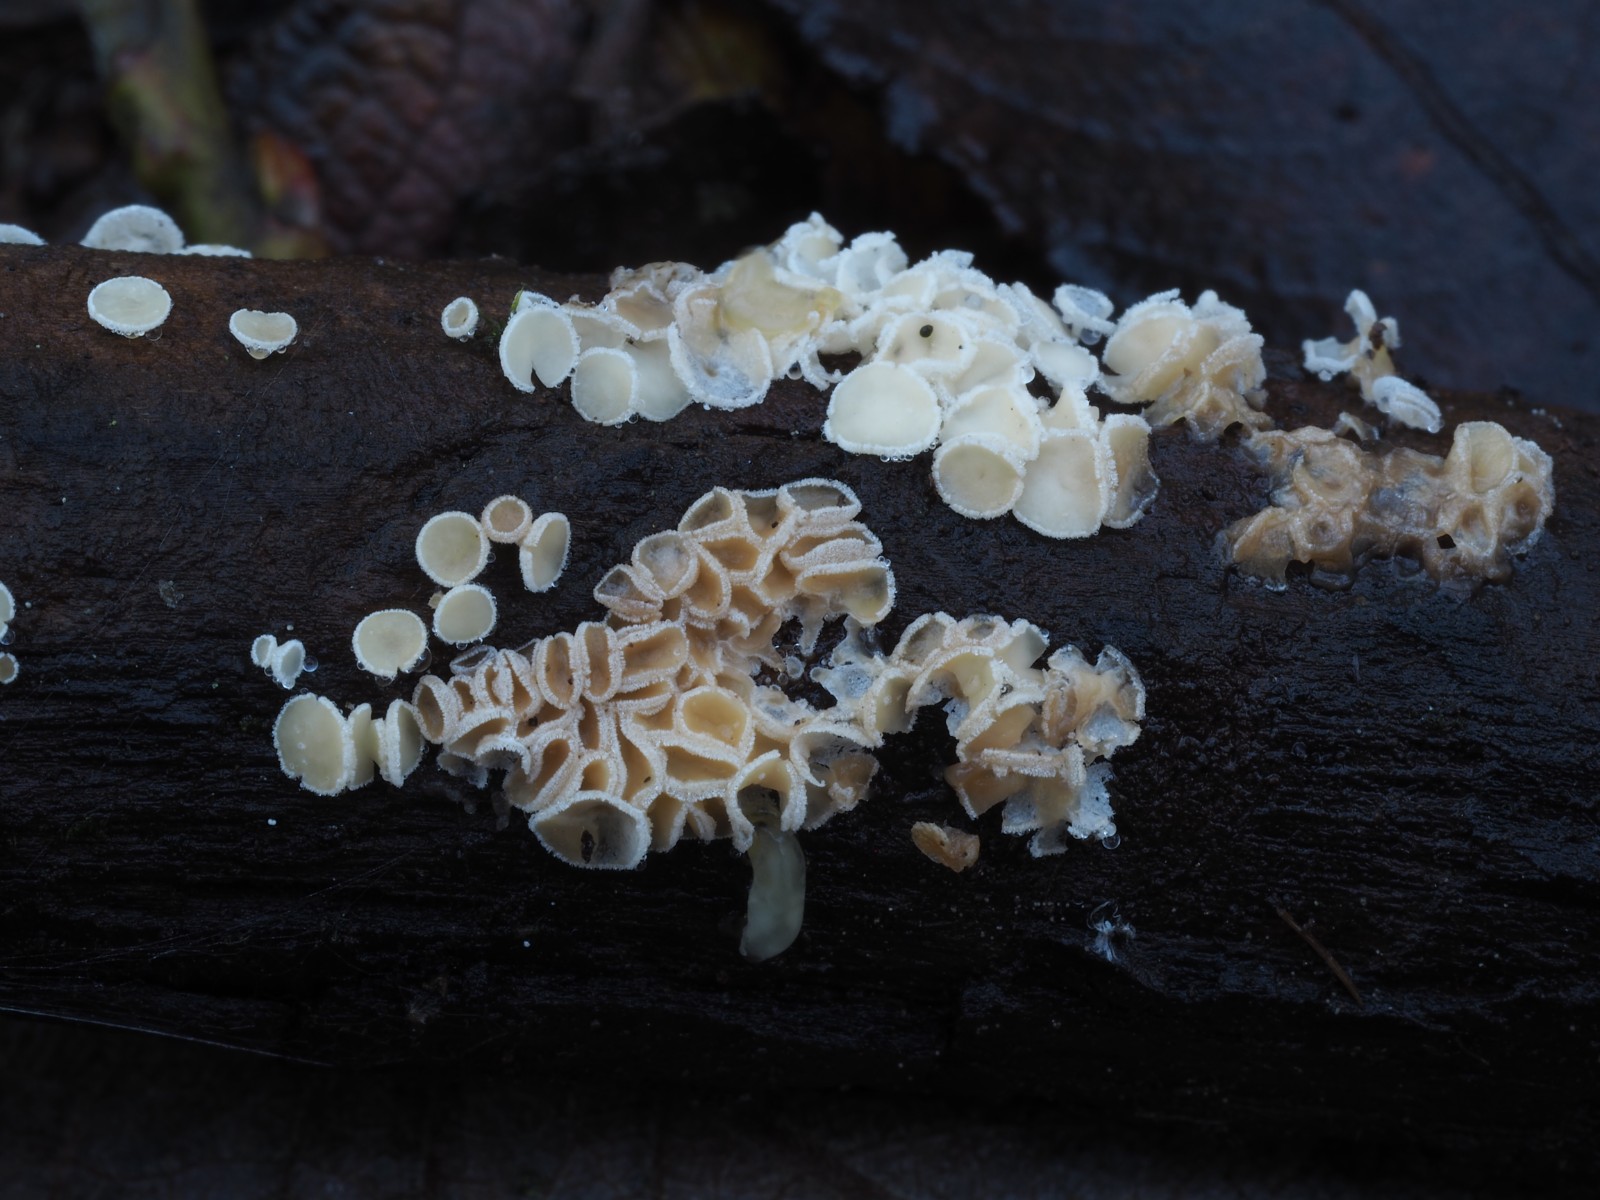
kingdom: Fungi
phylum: Ascomycota
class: Leotiomycetes
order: Helotiales
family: Lachnaceae
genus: Lachnum
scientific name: Lachnum pudibundum
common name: brude-frynseskive
